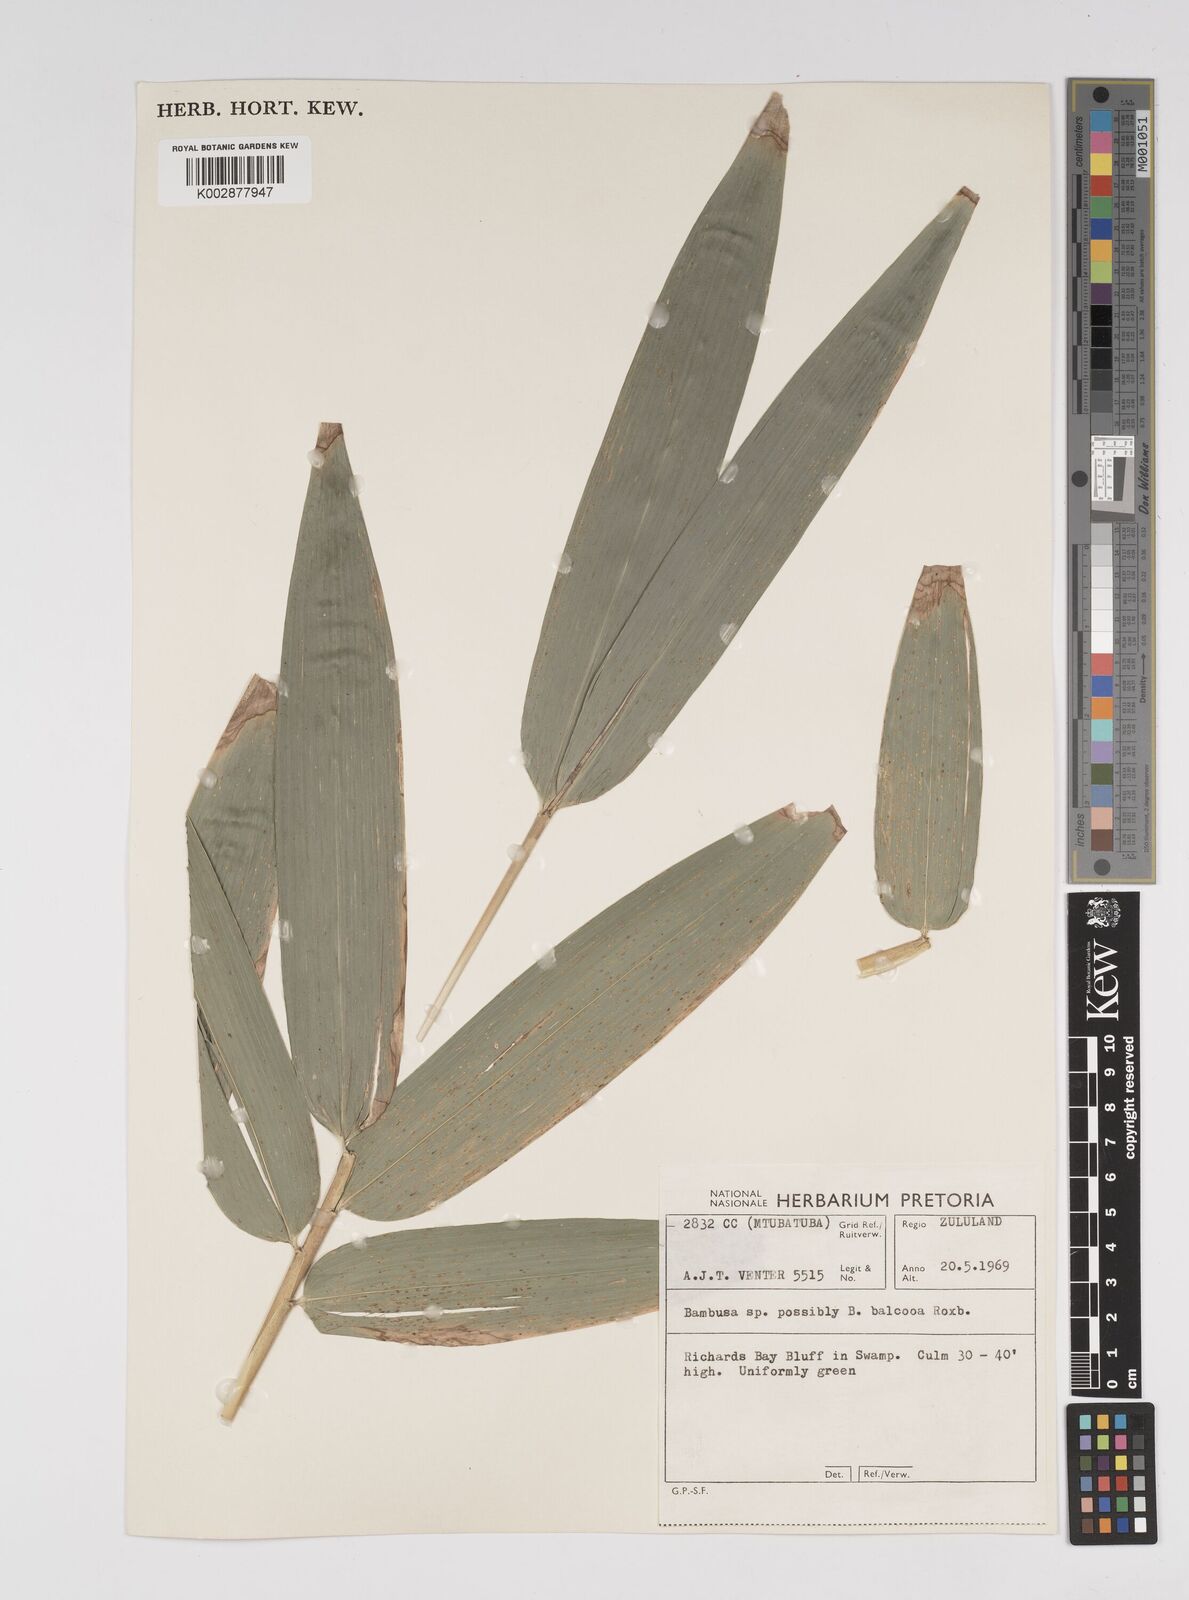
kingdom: Plantae
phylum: Tracheophyta
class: Liliopsida
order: Poales
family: Poaceae
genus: Bambusa
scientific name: Bambusa balcooa
